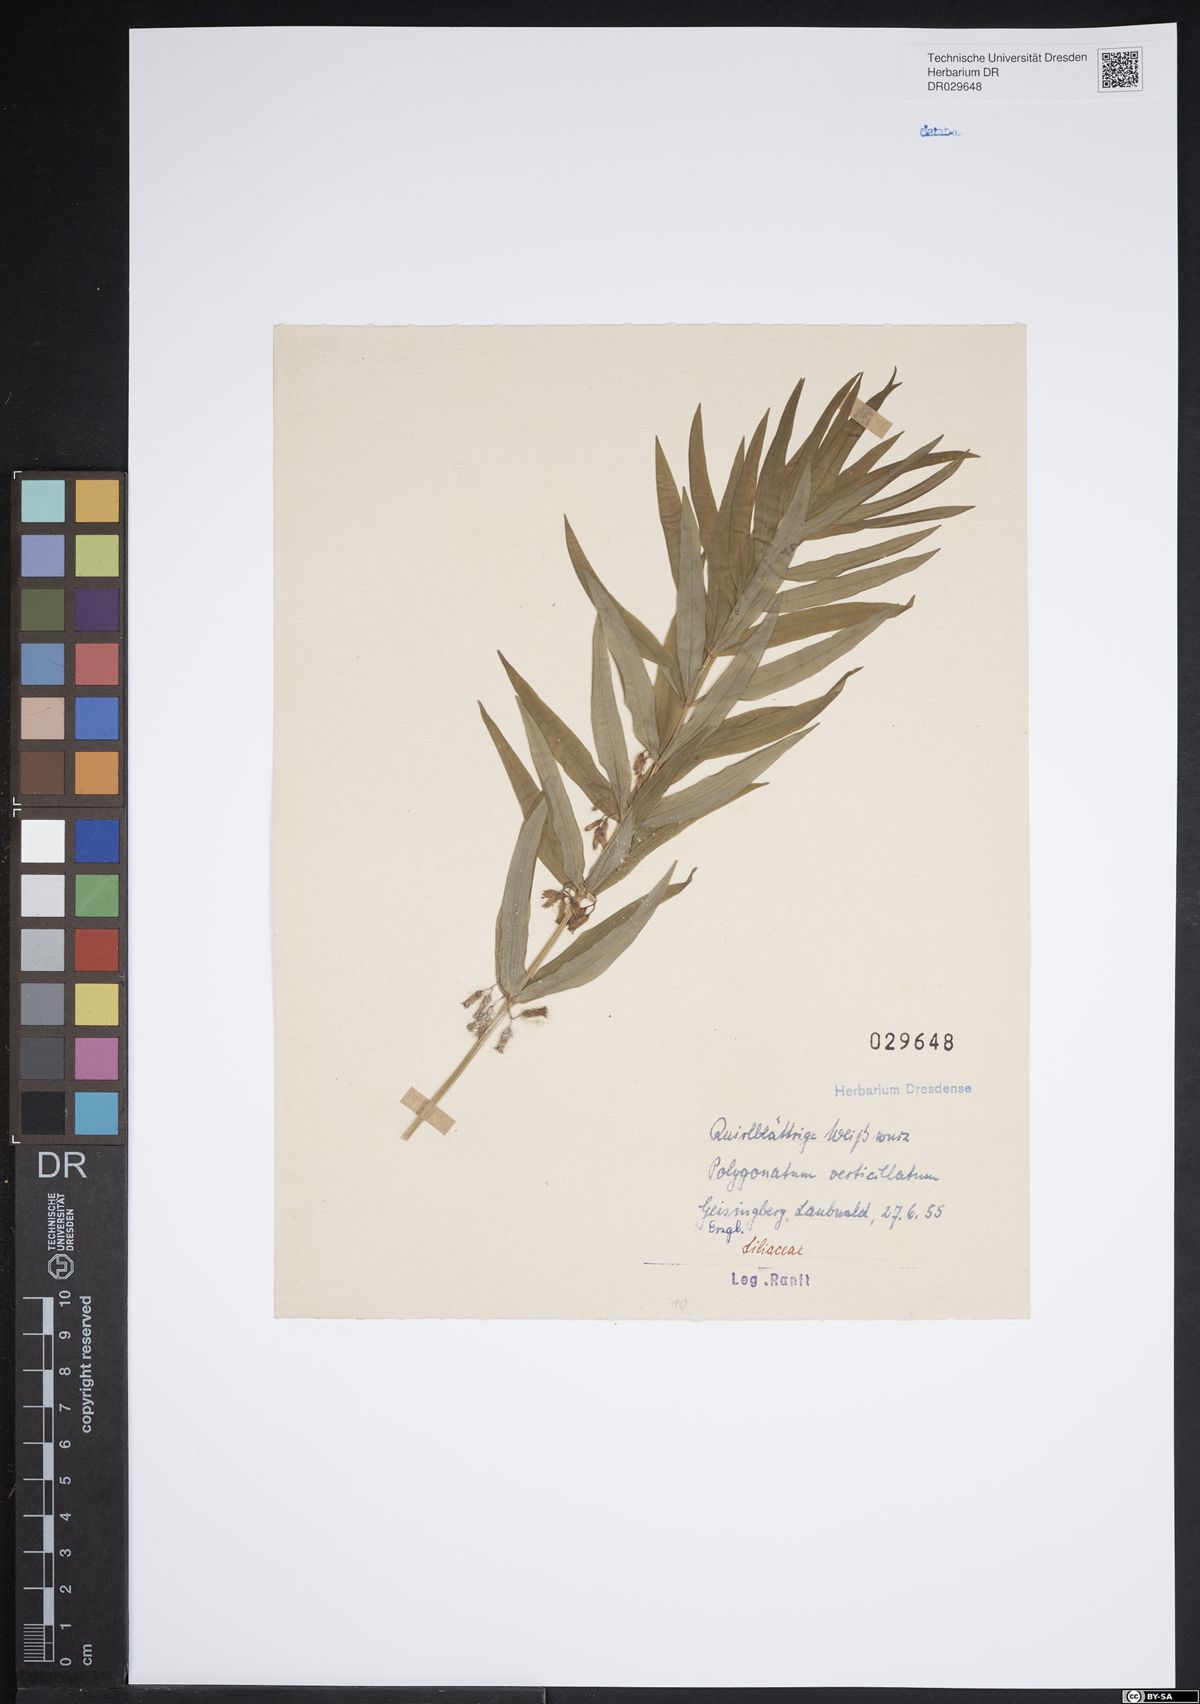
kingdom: Plantae
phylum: Tracheophyta
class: Liliopsida
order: Asparagales
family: Asparagaceae
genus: Polygonatum
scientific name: Polygonatum verticillatum
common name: Whorled solomon's-seal
